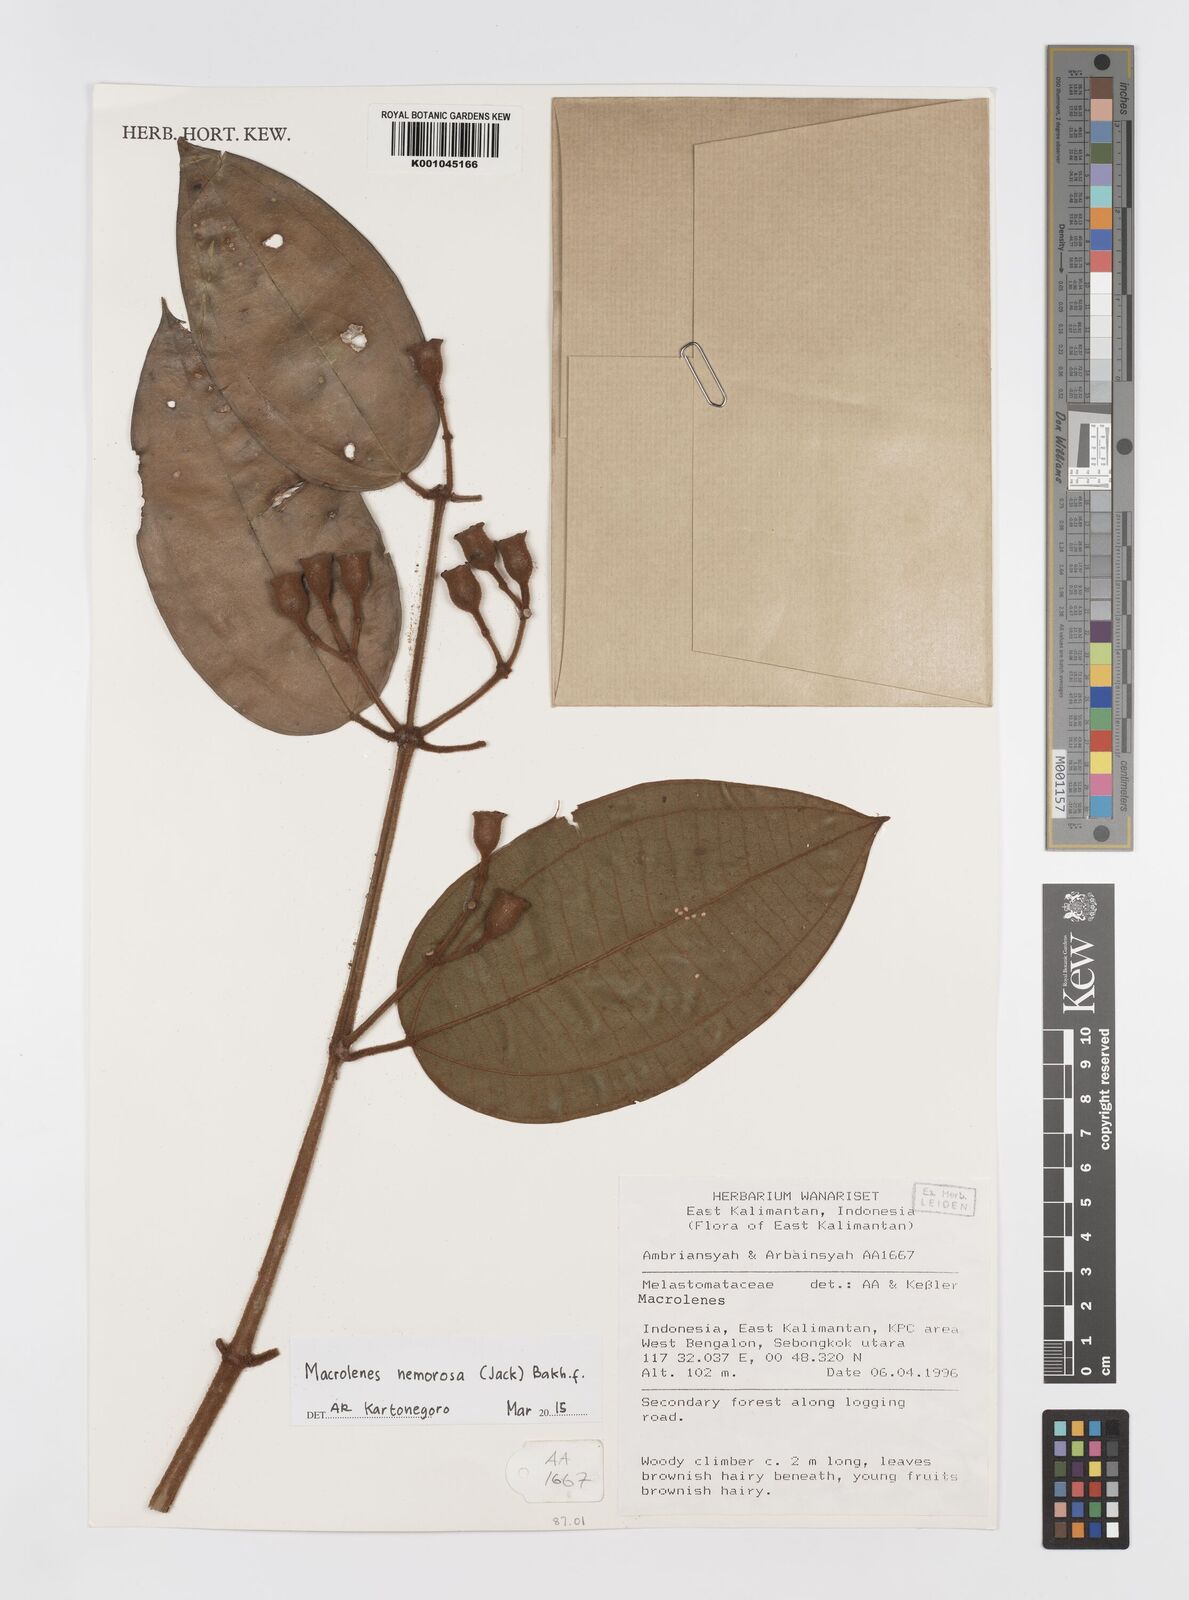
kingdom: Plantae
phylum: Tracheophyta
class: Magnoliopsida
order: Myrtales
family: Melastomataceae
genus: Macrolenes
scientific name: Macrolenes nemorosa
